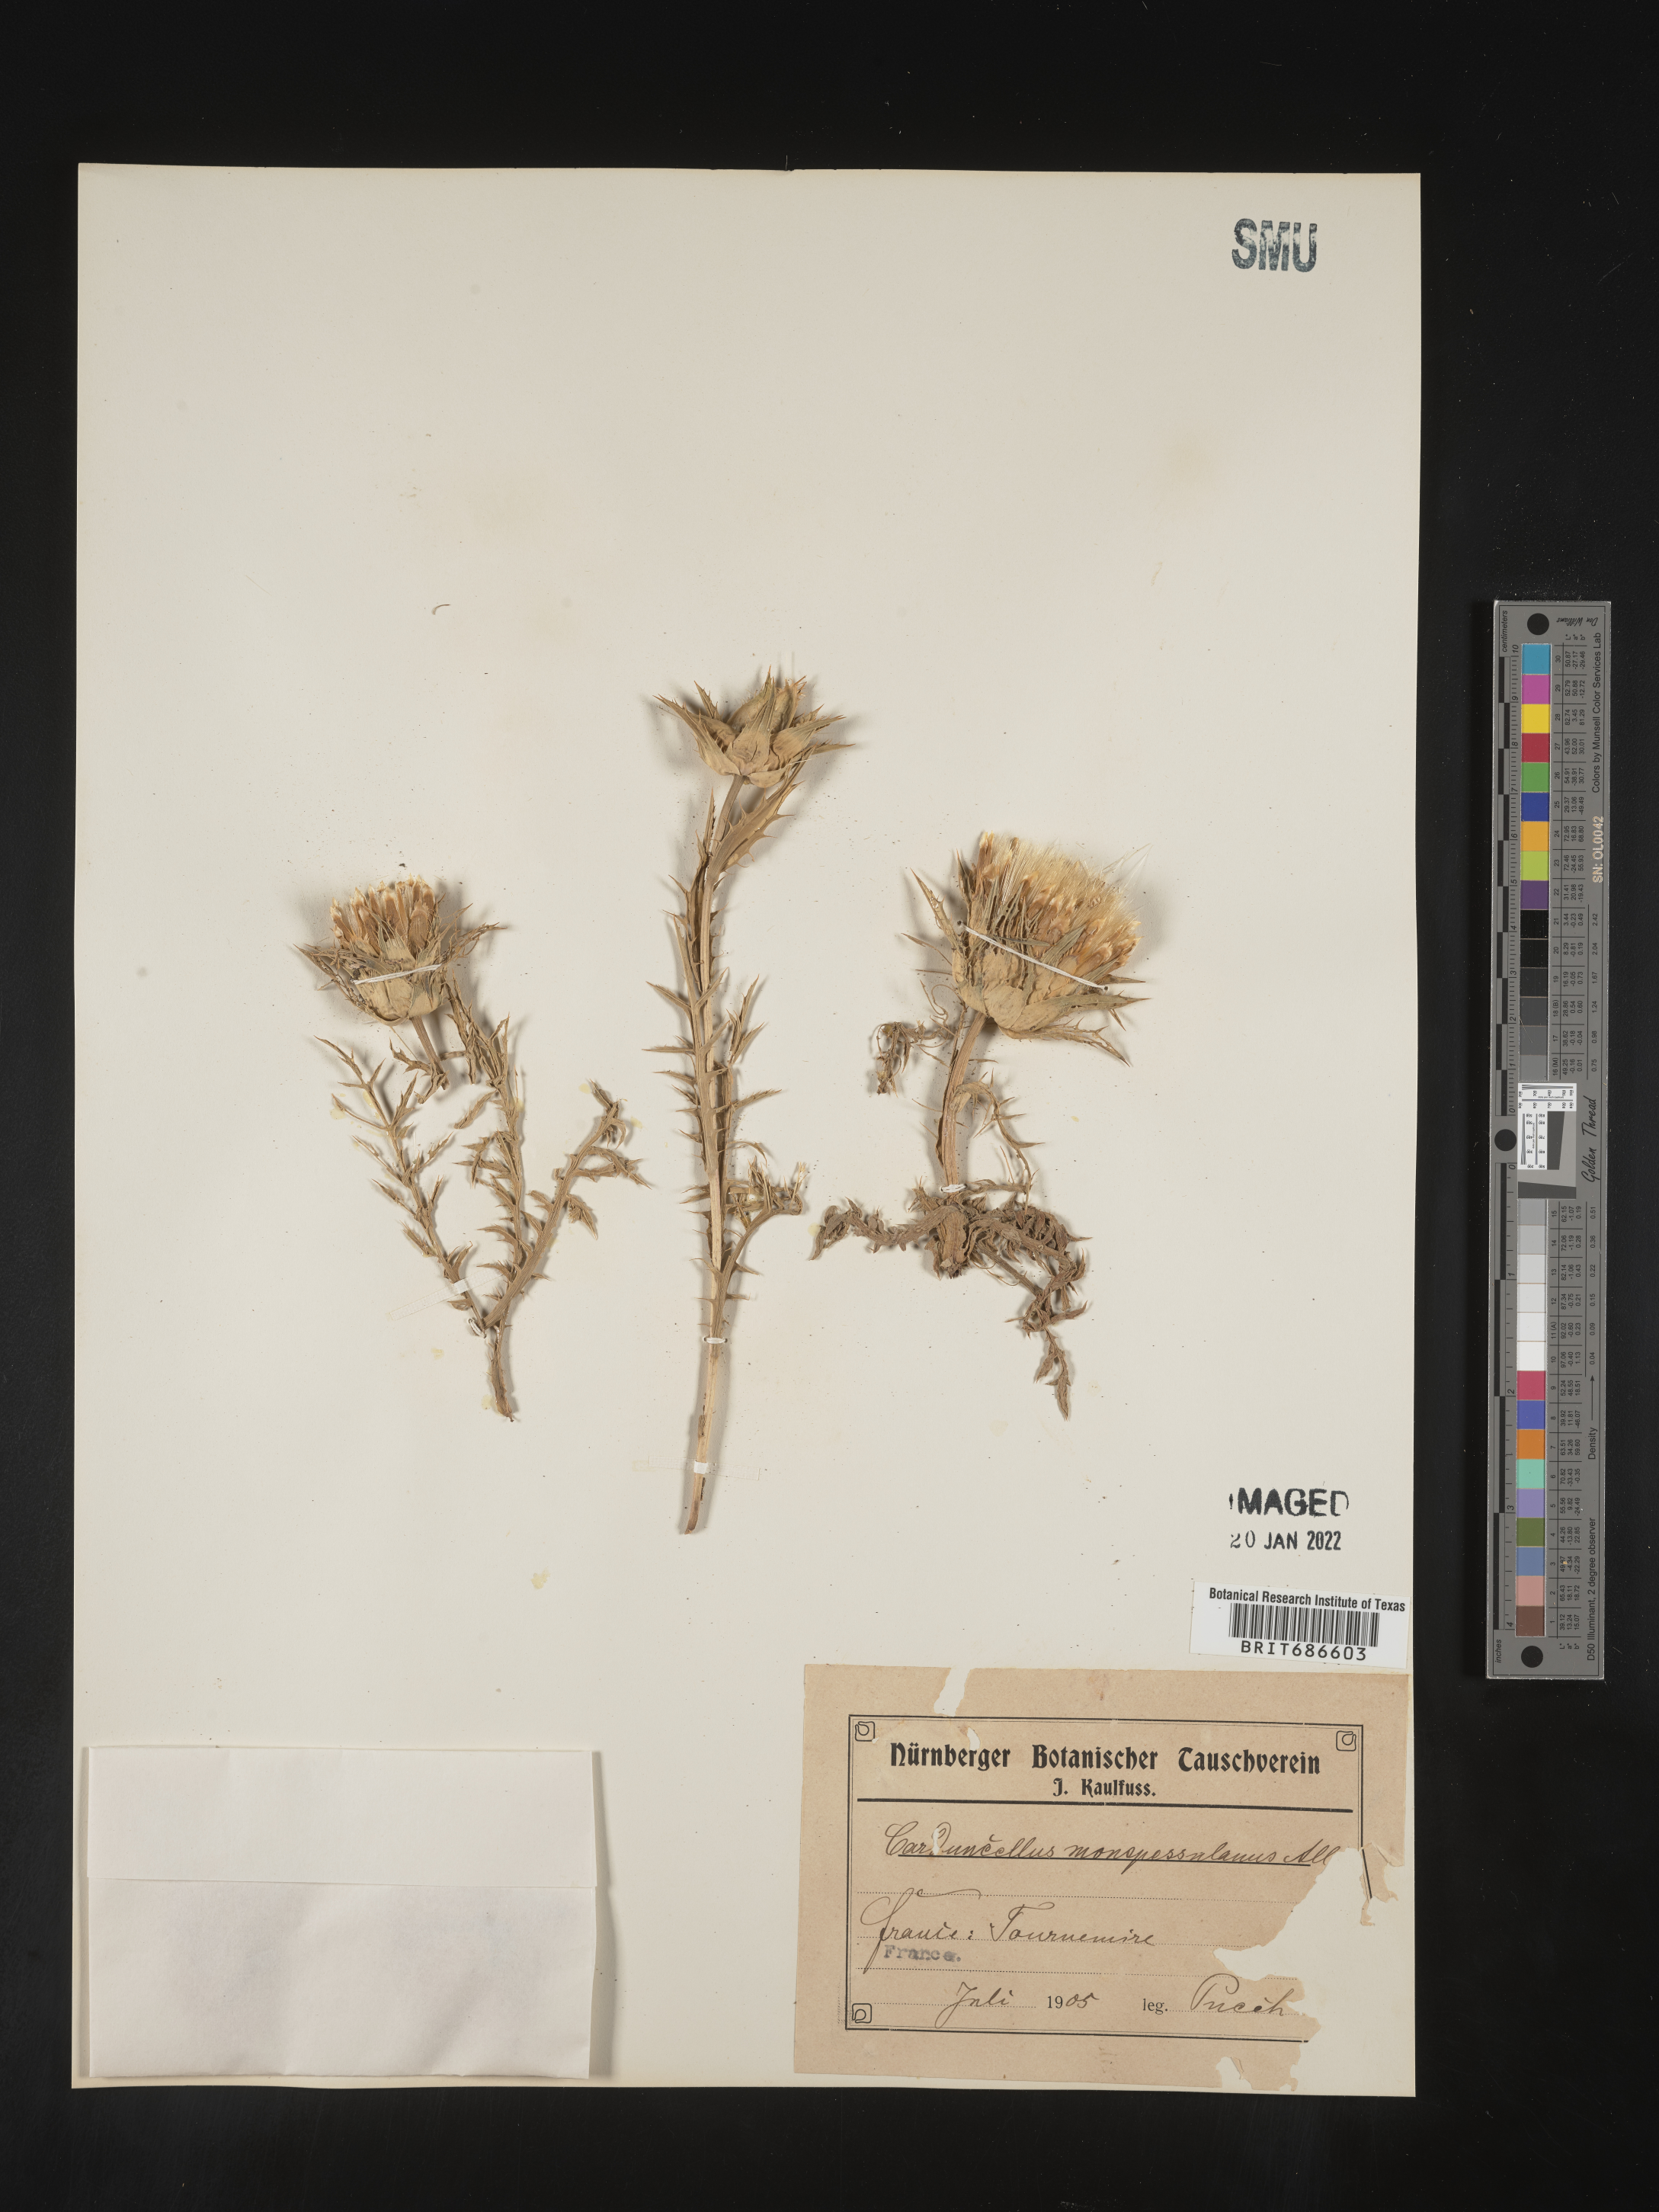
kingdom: Plantae
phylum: Tracheophyta
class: Magnoliopsida
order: Asterales
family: Asteraceae
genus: Carduncellus
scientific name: Carduncellus
